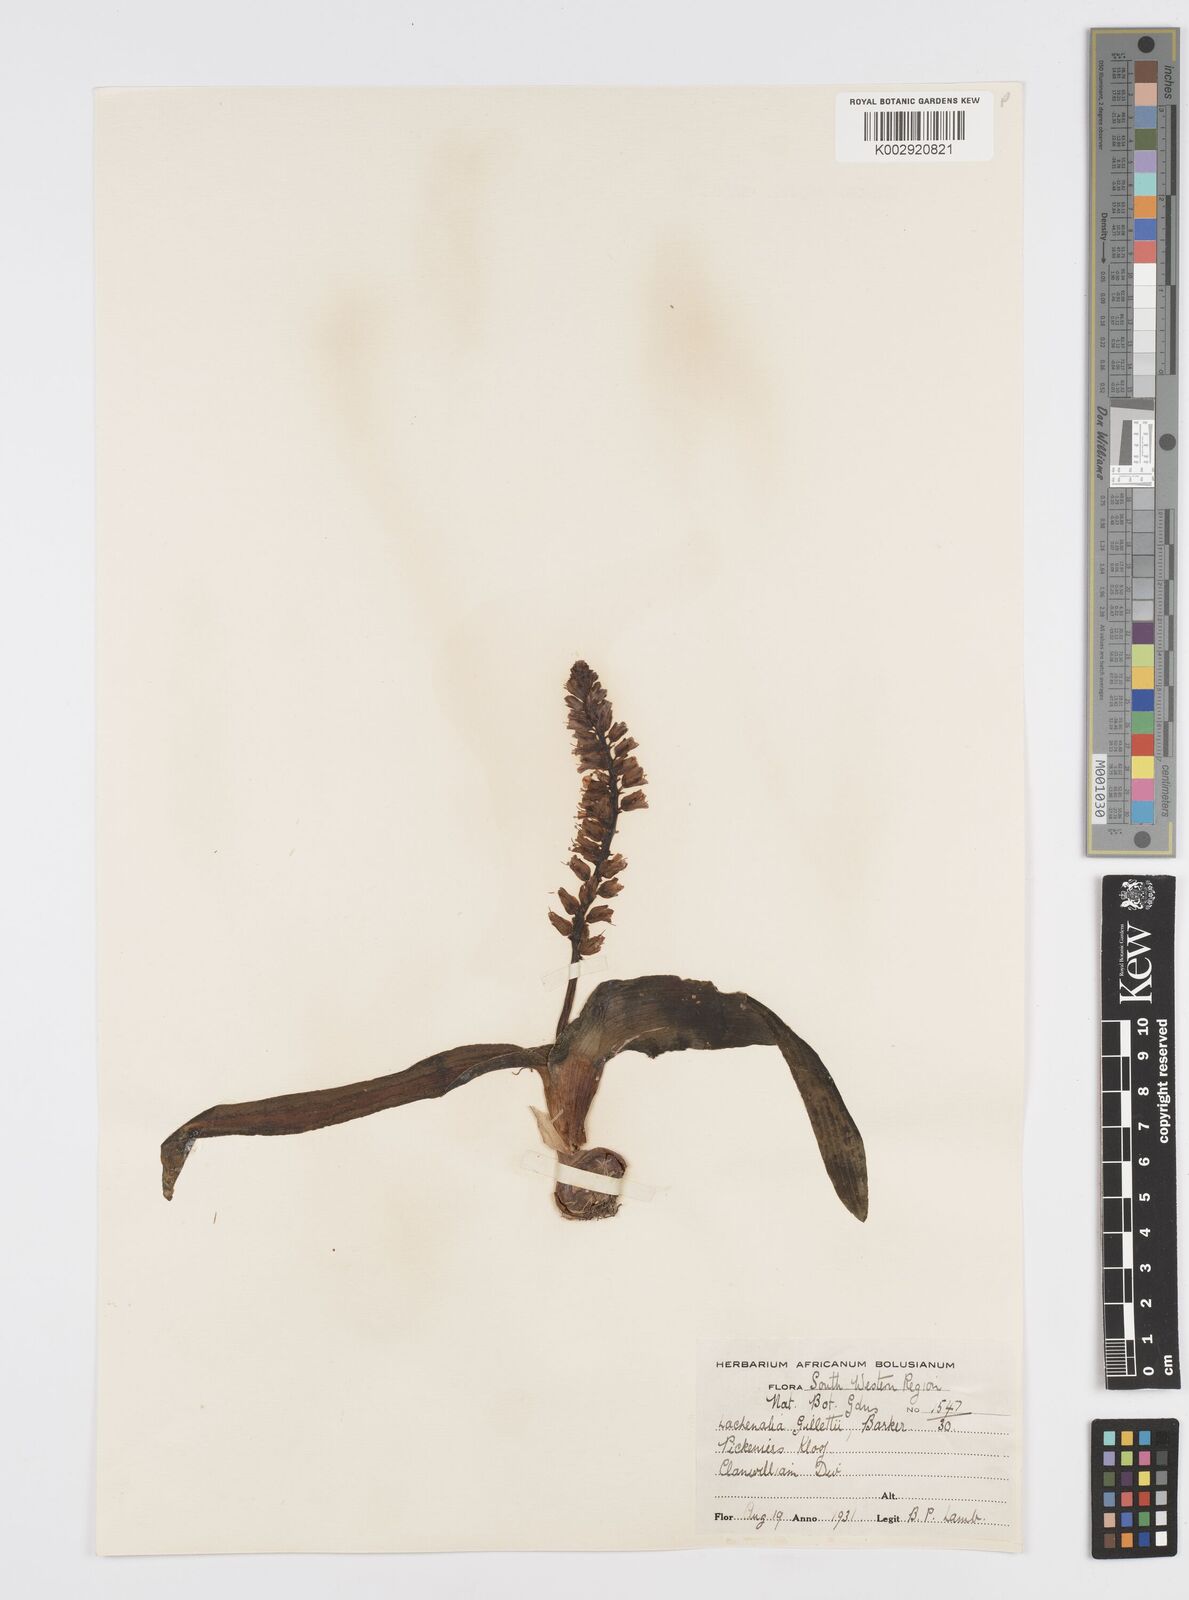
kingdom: Plantae
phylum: Tracheophyta
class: Liliopsida
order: Asparagales
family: Asparagaceae
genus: Lachenalia
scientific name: Lachenalia pallida
